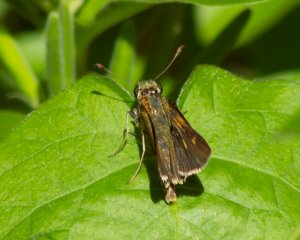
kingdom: Animalia
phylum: Arthropoda
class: Insecta
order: Lepidoptera
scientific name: Lepidoptera
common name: Butterflies
